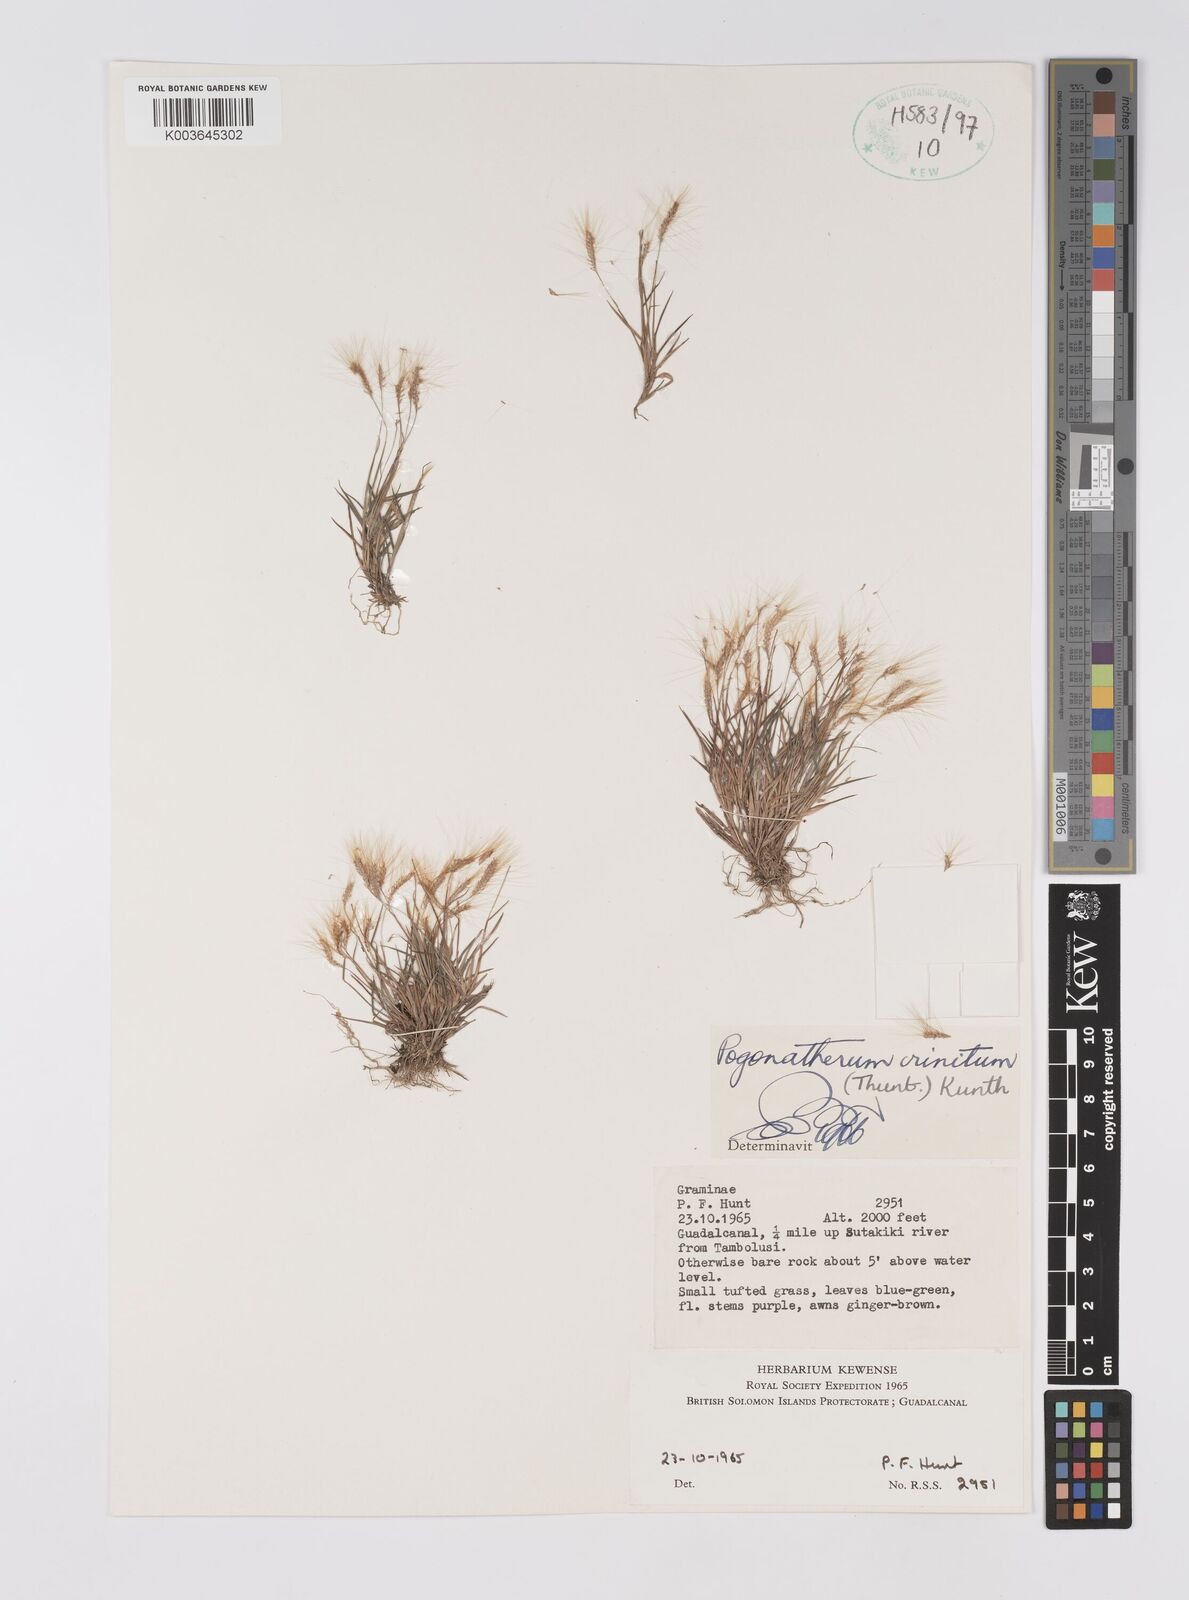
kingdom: Plantae
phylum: Tracheophyta
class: Liliopsida
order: Poales
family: Poaceae
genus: Pogonatherum
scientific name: Pogonatherum crinitum
